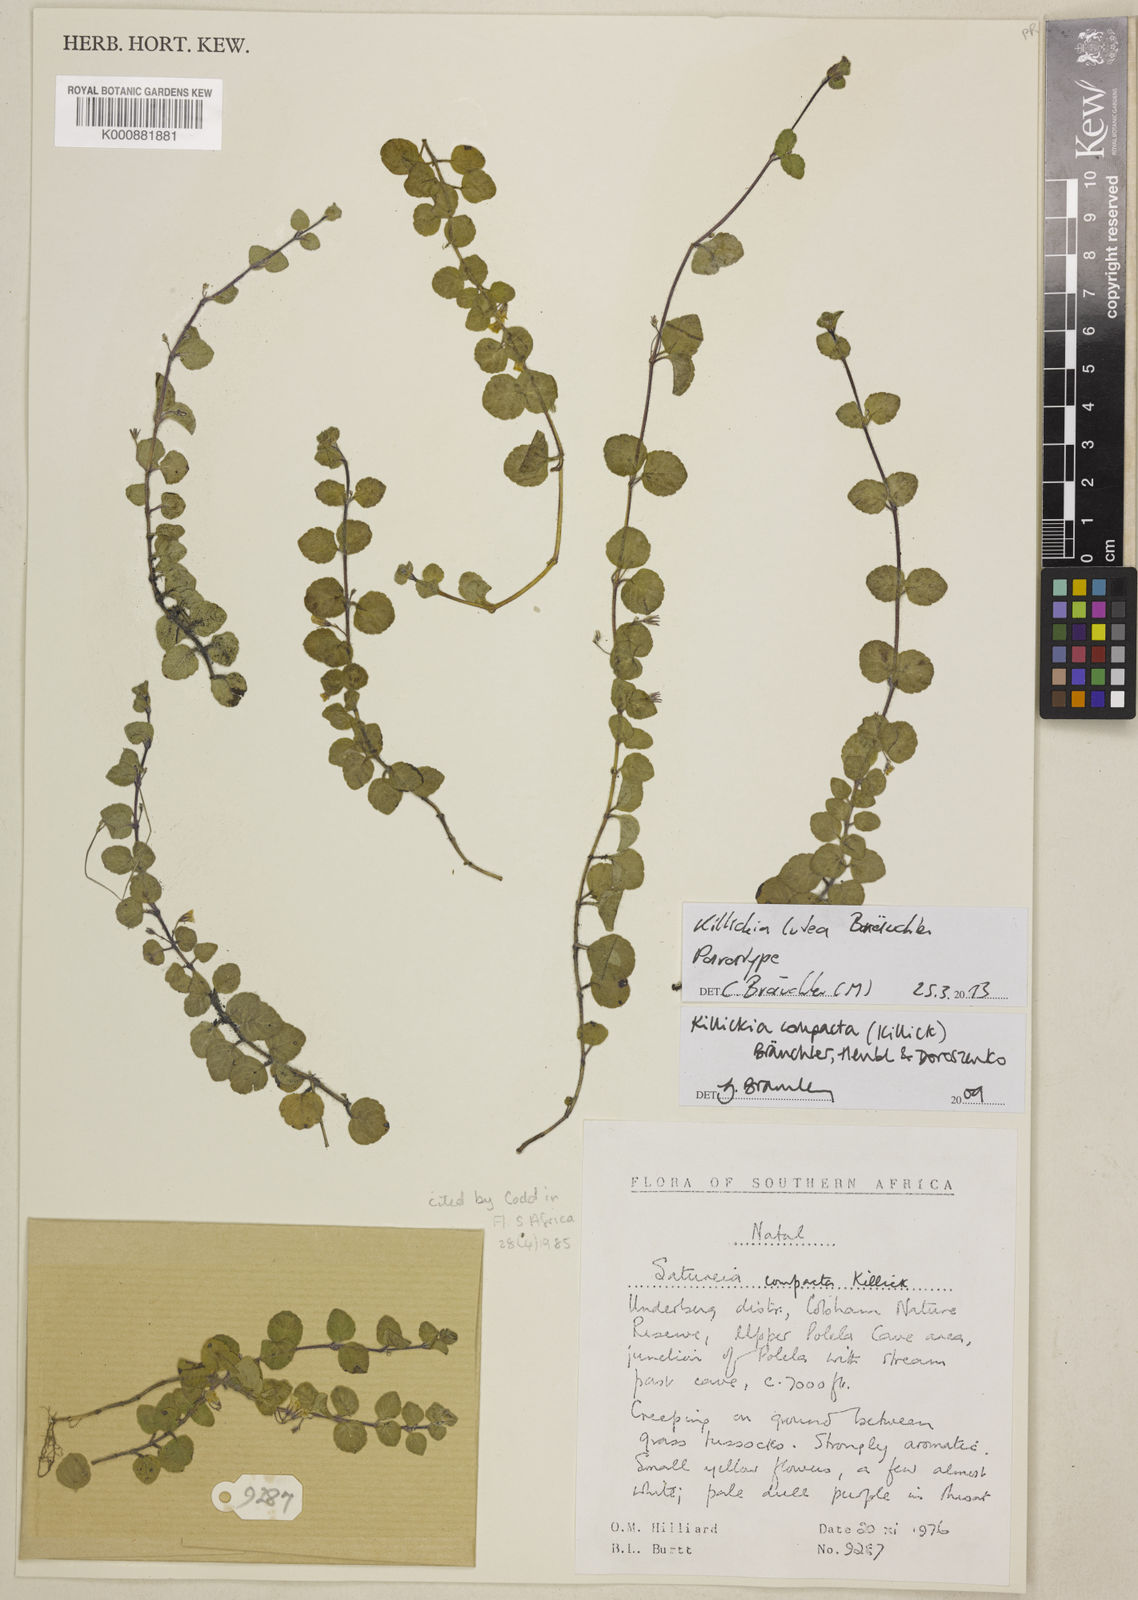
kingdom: Plantae
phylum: Tracheophyta
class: Magnoliopsida
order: Lamiales
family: Lamiaceae
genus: Killickia
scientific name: Killickia
